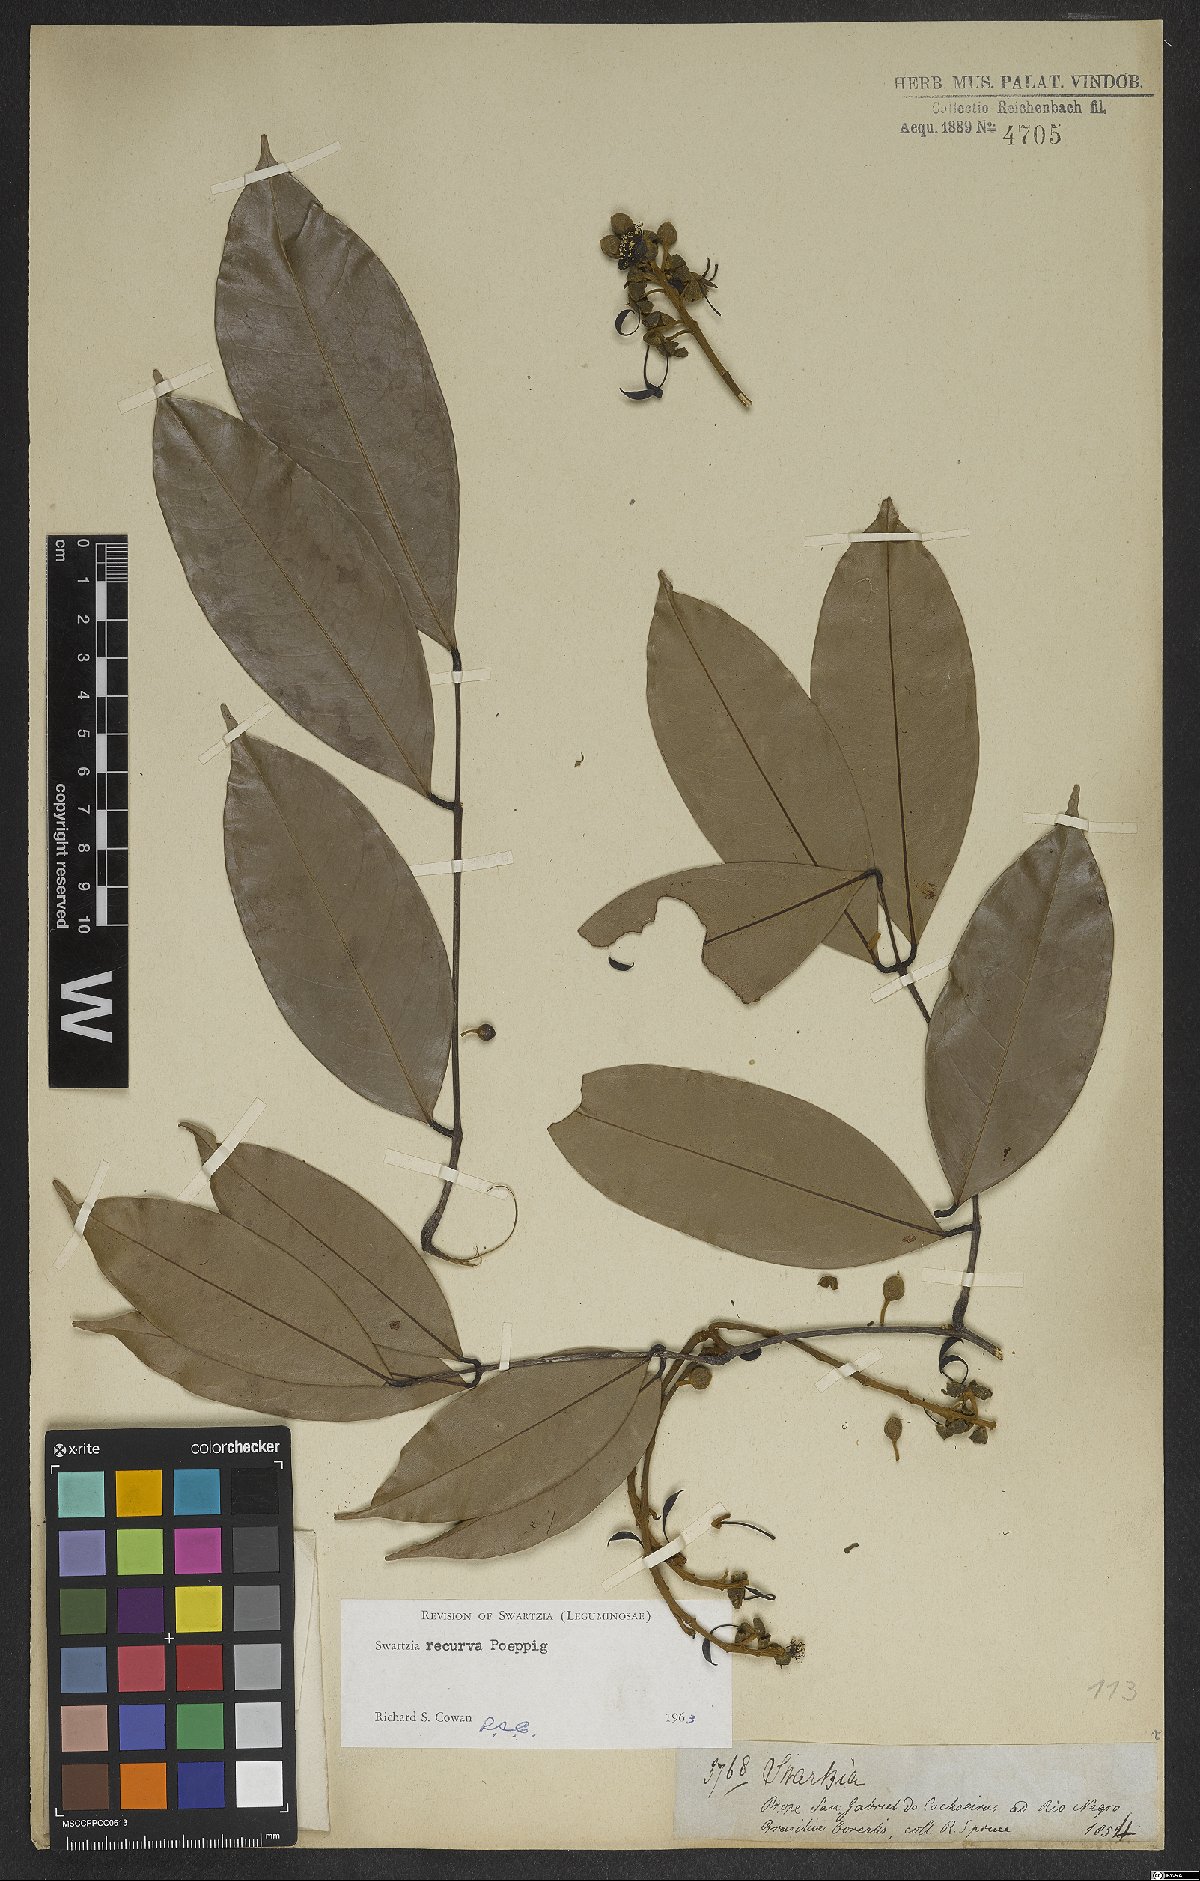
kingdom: Plantae
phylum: Tracheophyta
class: Magnoliopsida
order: Fabales
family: Fabaceae
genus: Swartzia
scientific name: Swartzia recurva
